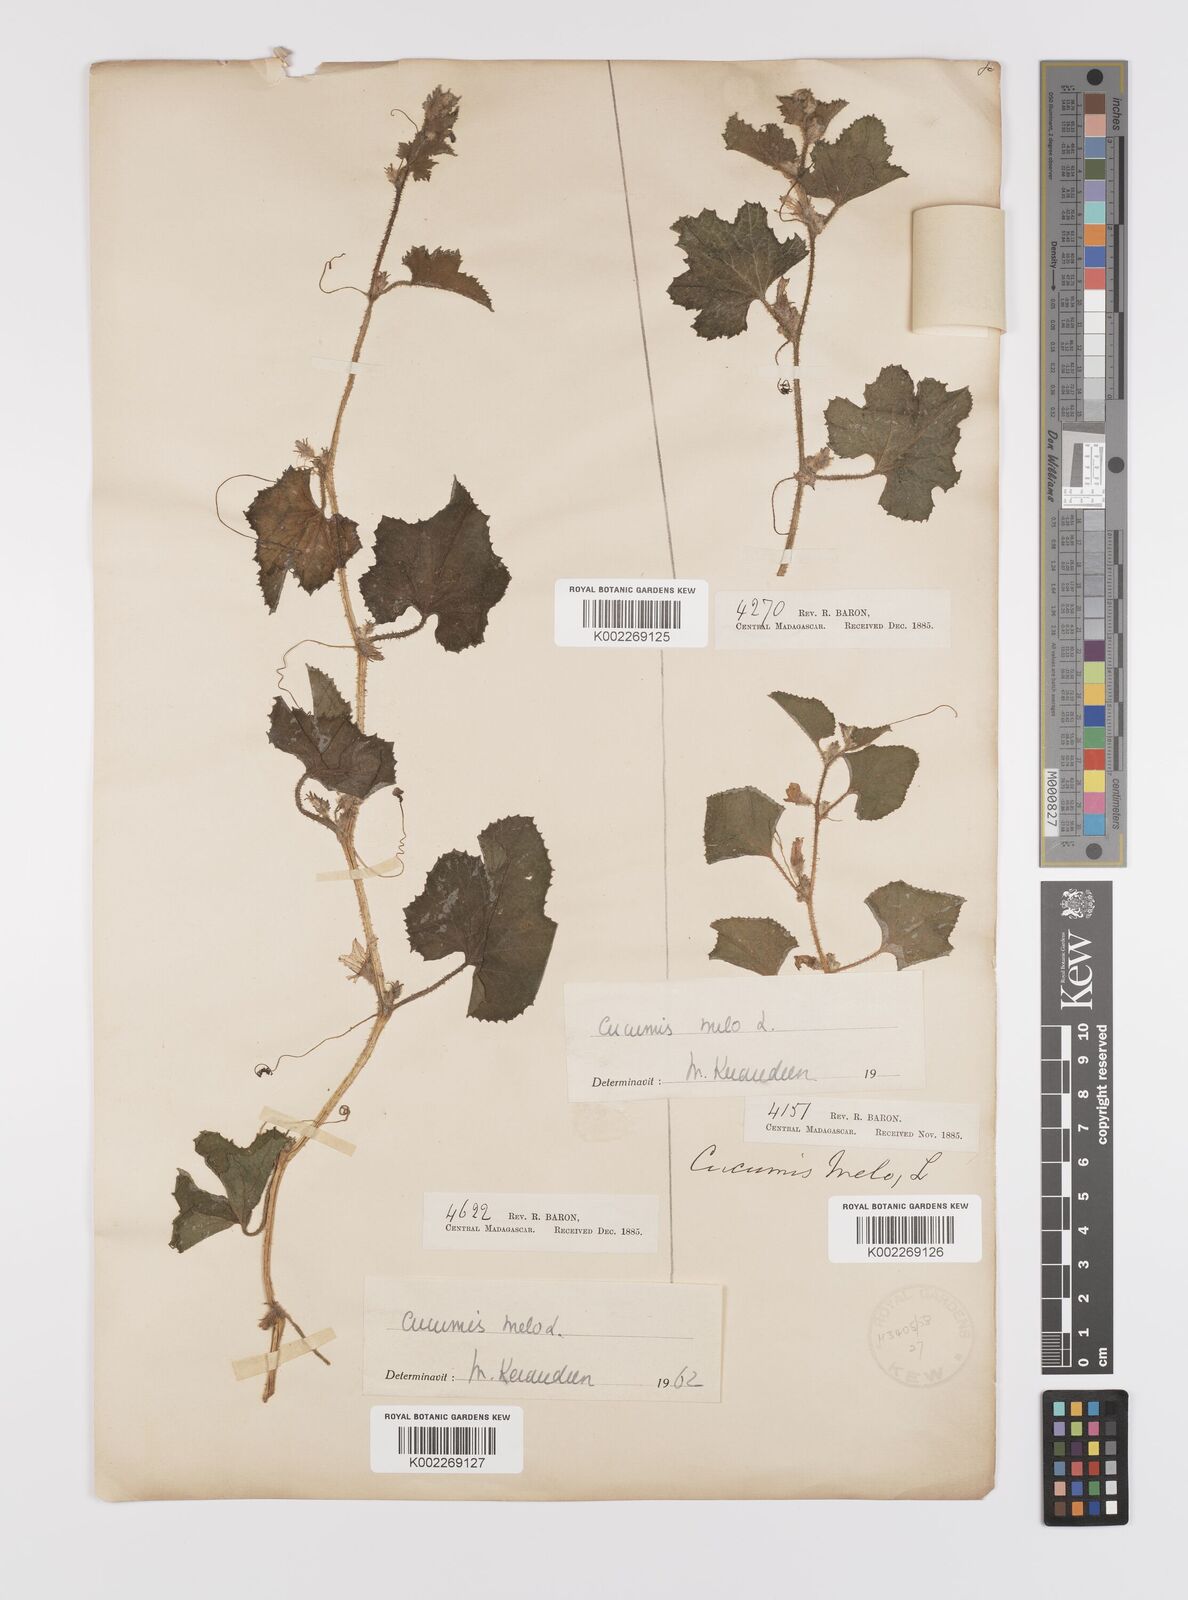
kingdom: Plantae
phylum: Tracheophyta
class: Magnoliopsida
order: Cucurbitales
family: Cucurbitaceae
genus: Cucumis
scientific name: Cucumis melo
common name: Melon
